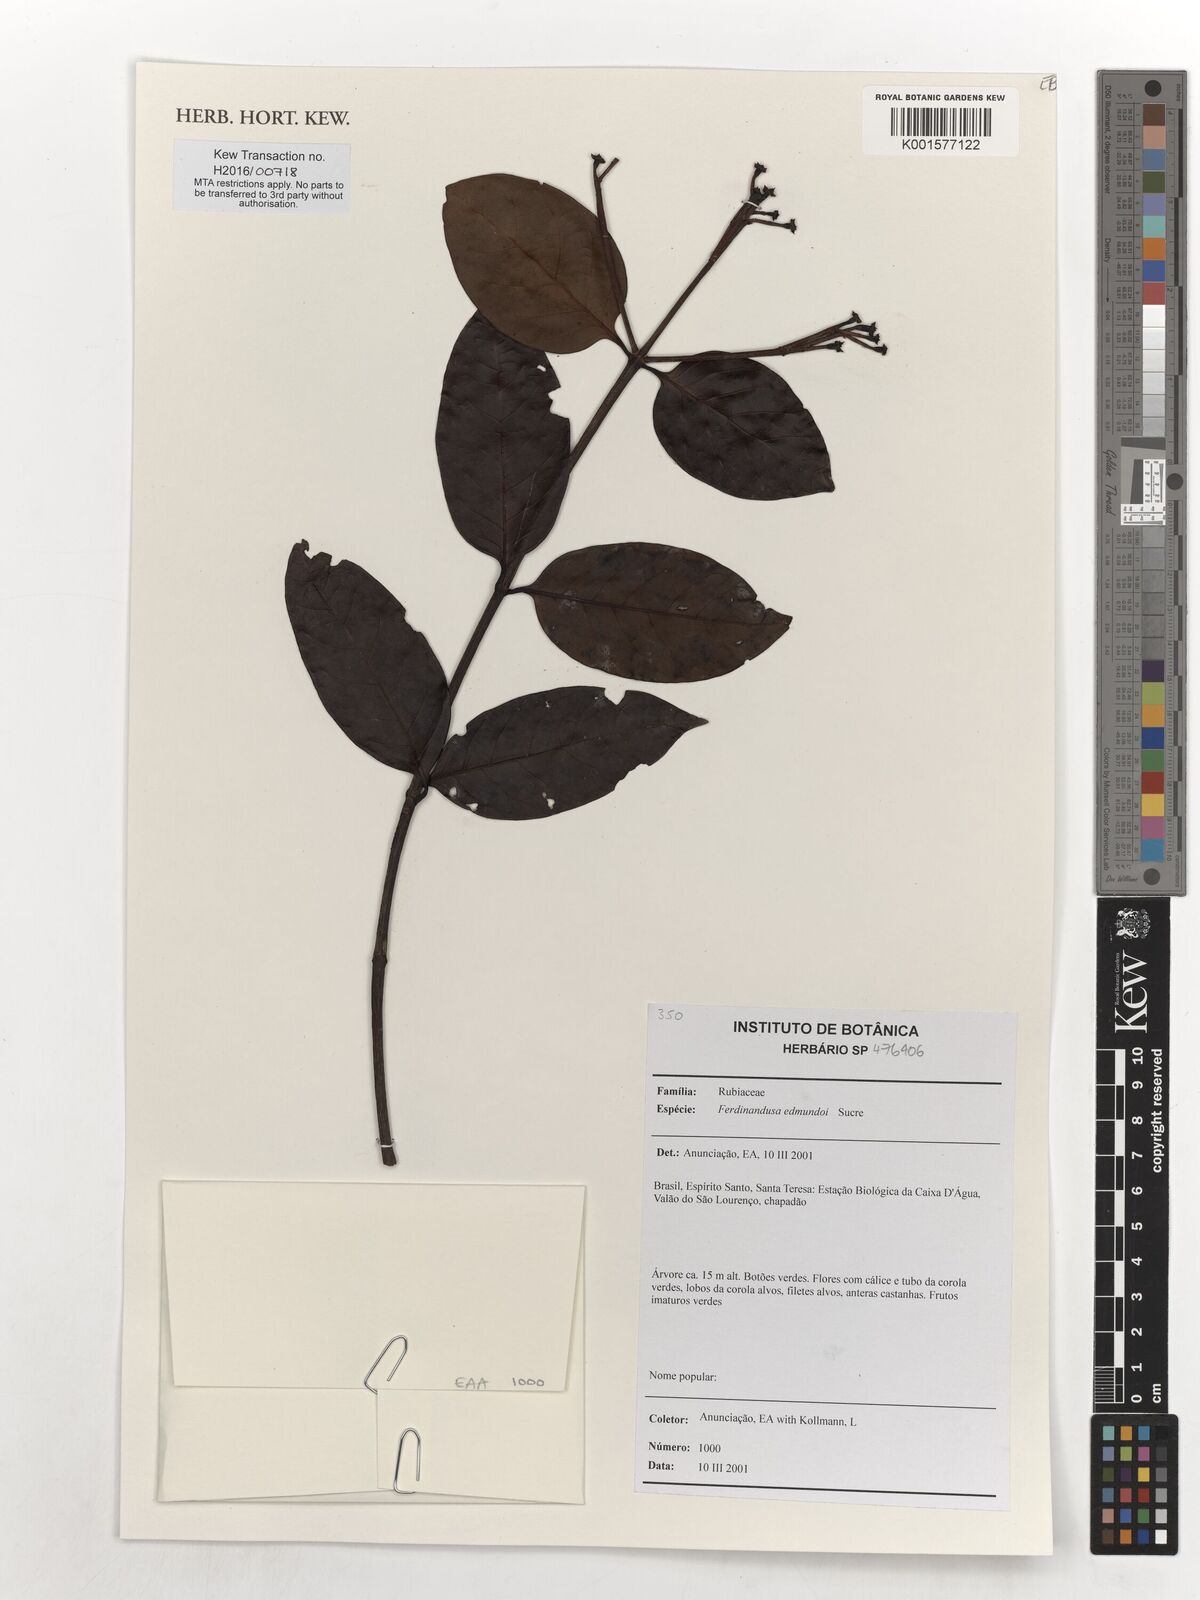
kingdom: Plantae
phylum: Tracheophyta
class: Magnoliopsida
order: Gentianales
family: Rubiaceae
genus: Ferdinandusa
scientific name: Ferdinandusa edmundoi
